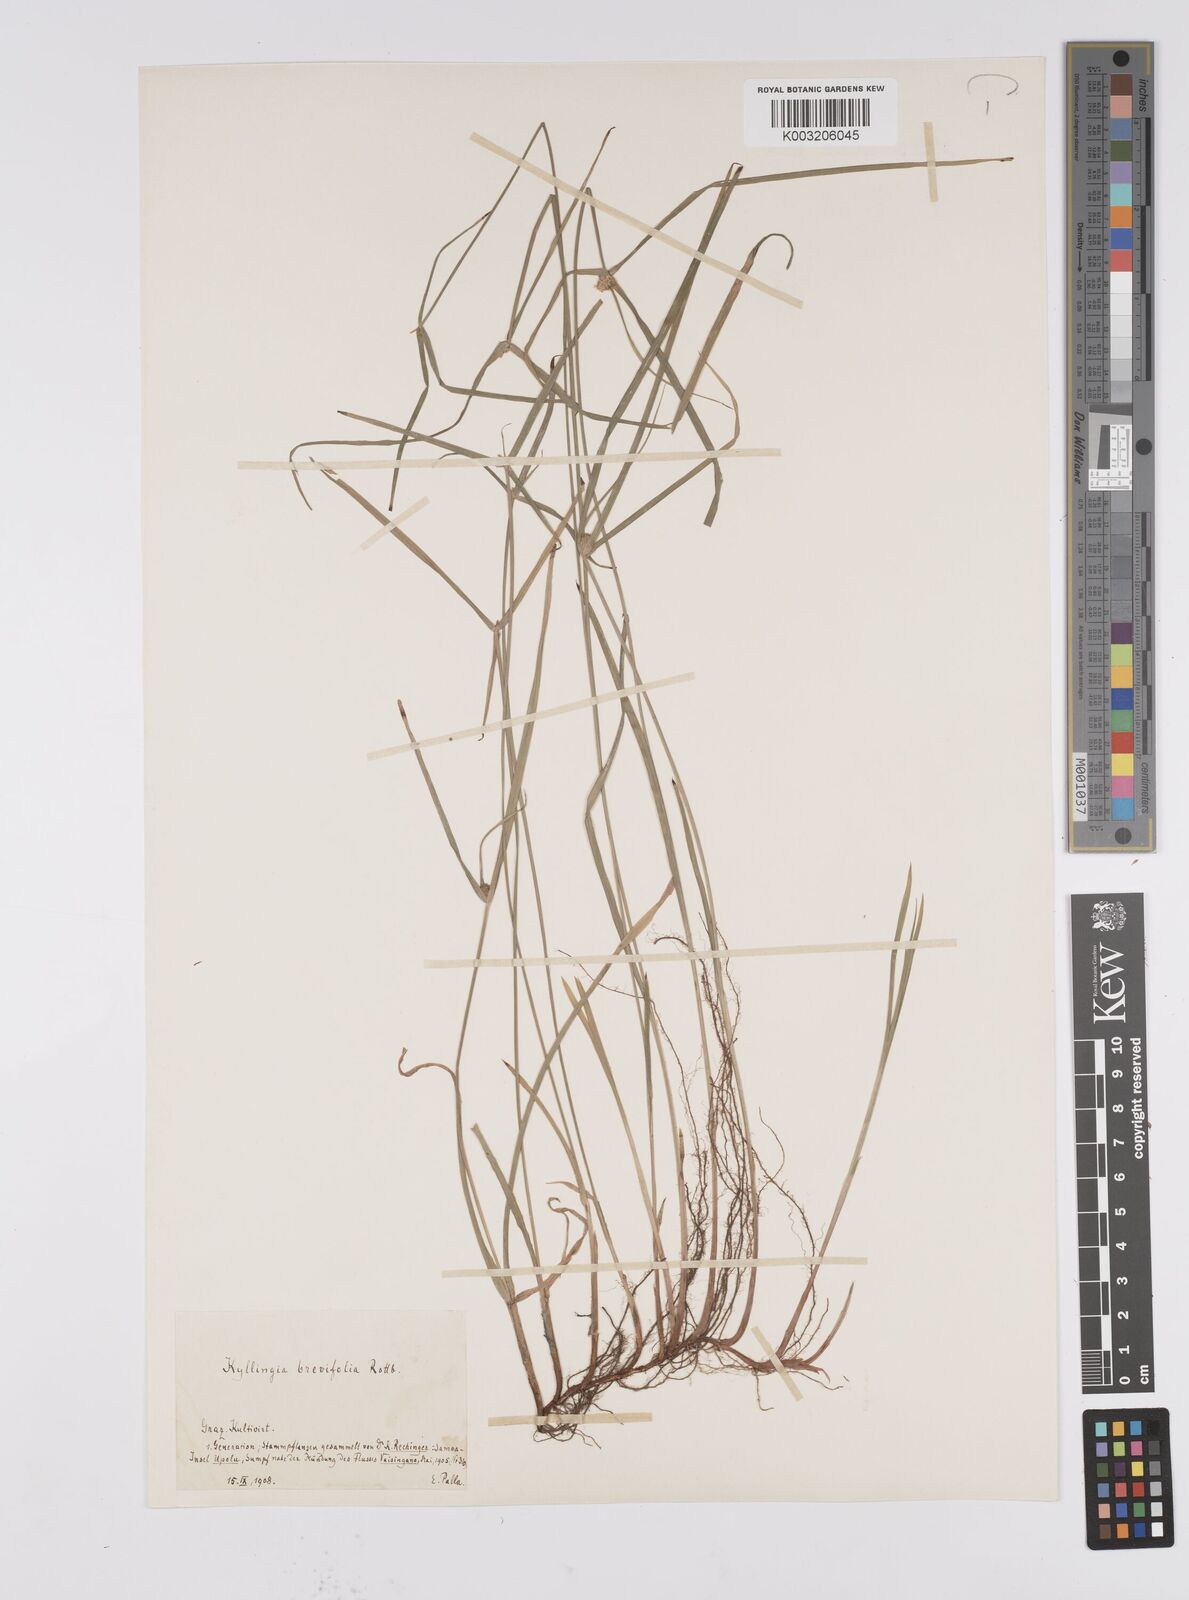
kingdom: Plantae
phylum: Tracheophyta
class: Liliopsida
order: Poales
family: Cyperaceae
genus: Cyperus
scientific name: Cyperus brevifolius
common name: Globe kyllinga
